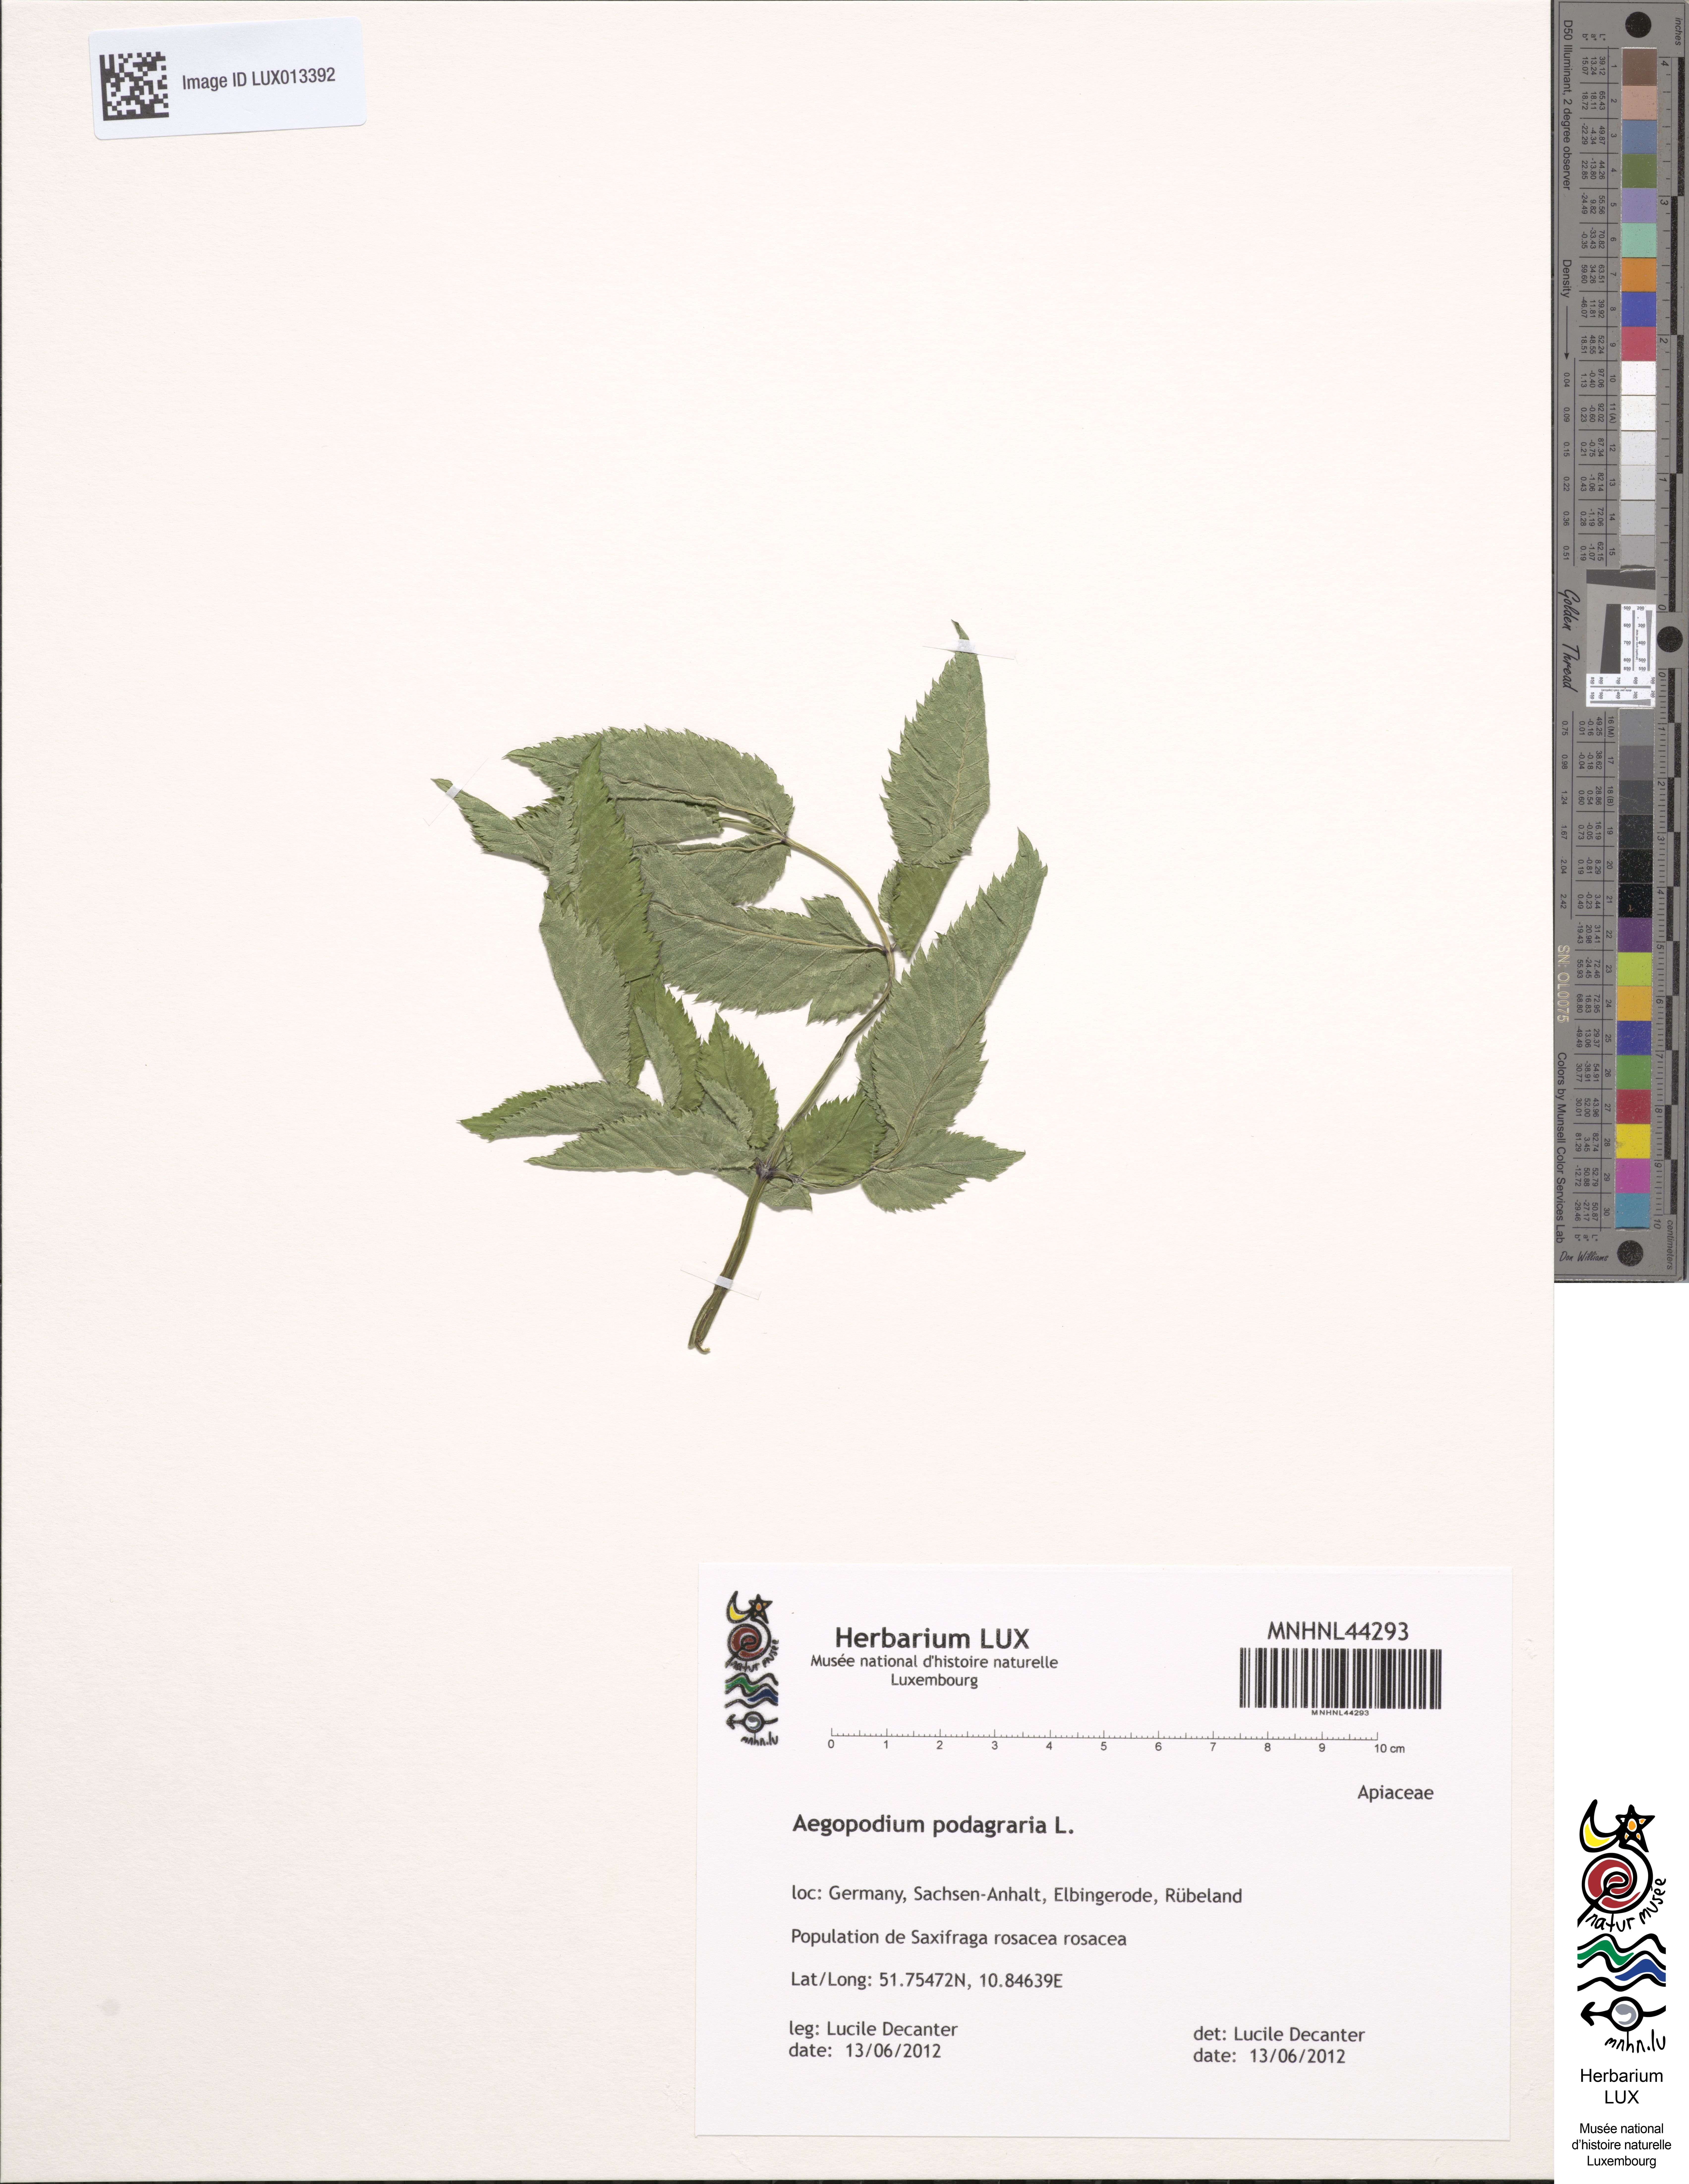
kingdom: Plantae
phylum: Tracheophyta
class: Magnoliopsida
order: Apiales
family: Apiaceae
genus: Aegopodium
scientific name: Aegopodium podagraria
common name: Ground-elder
